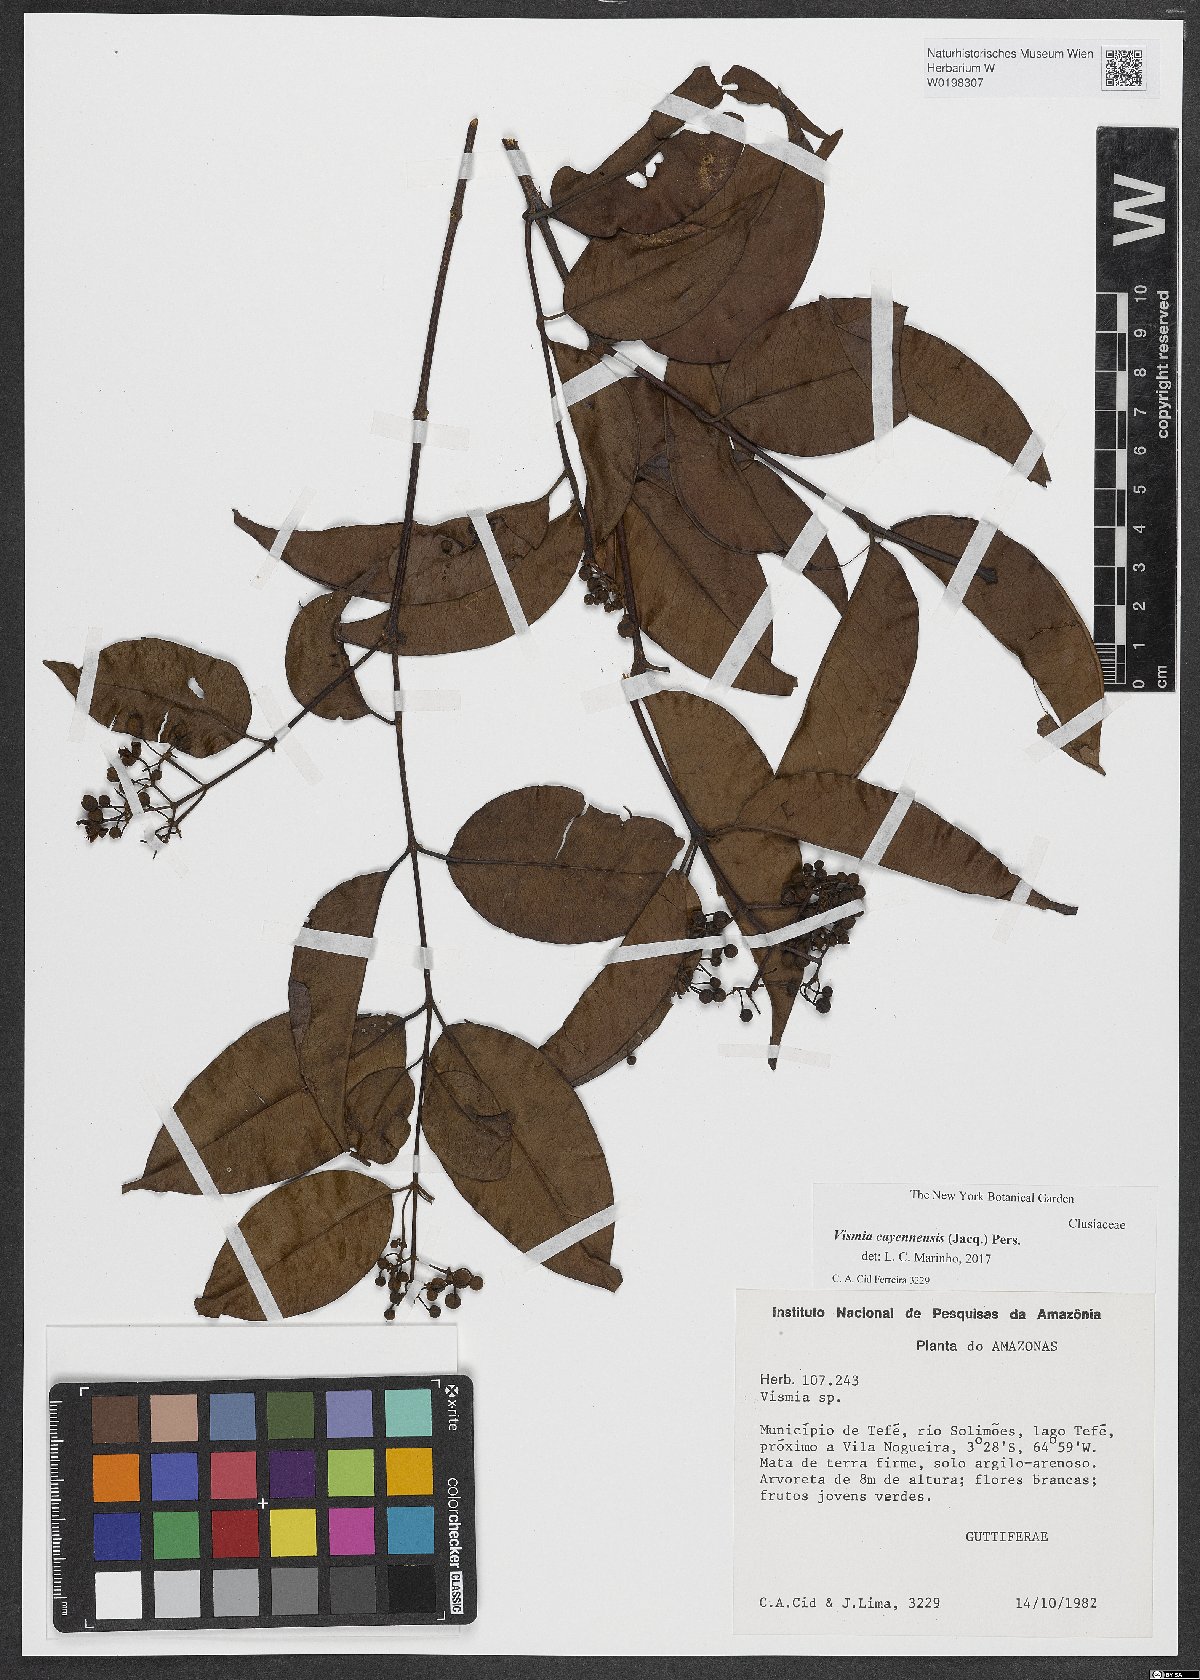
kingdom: Plantae
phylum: Tracheophyta
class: Magnoliopsida
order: Malpighiales
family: Hypericaceae
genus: Vismia
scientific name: Vismia cayennensis
